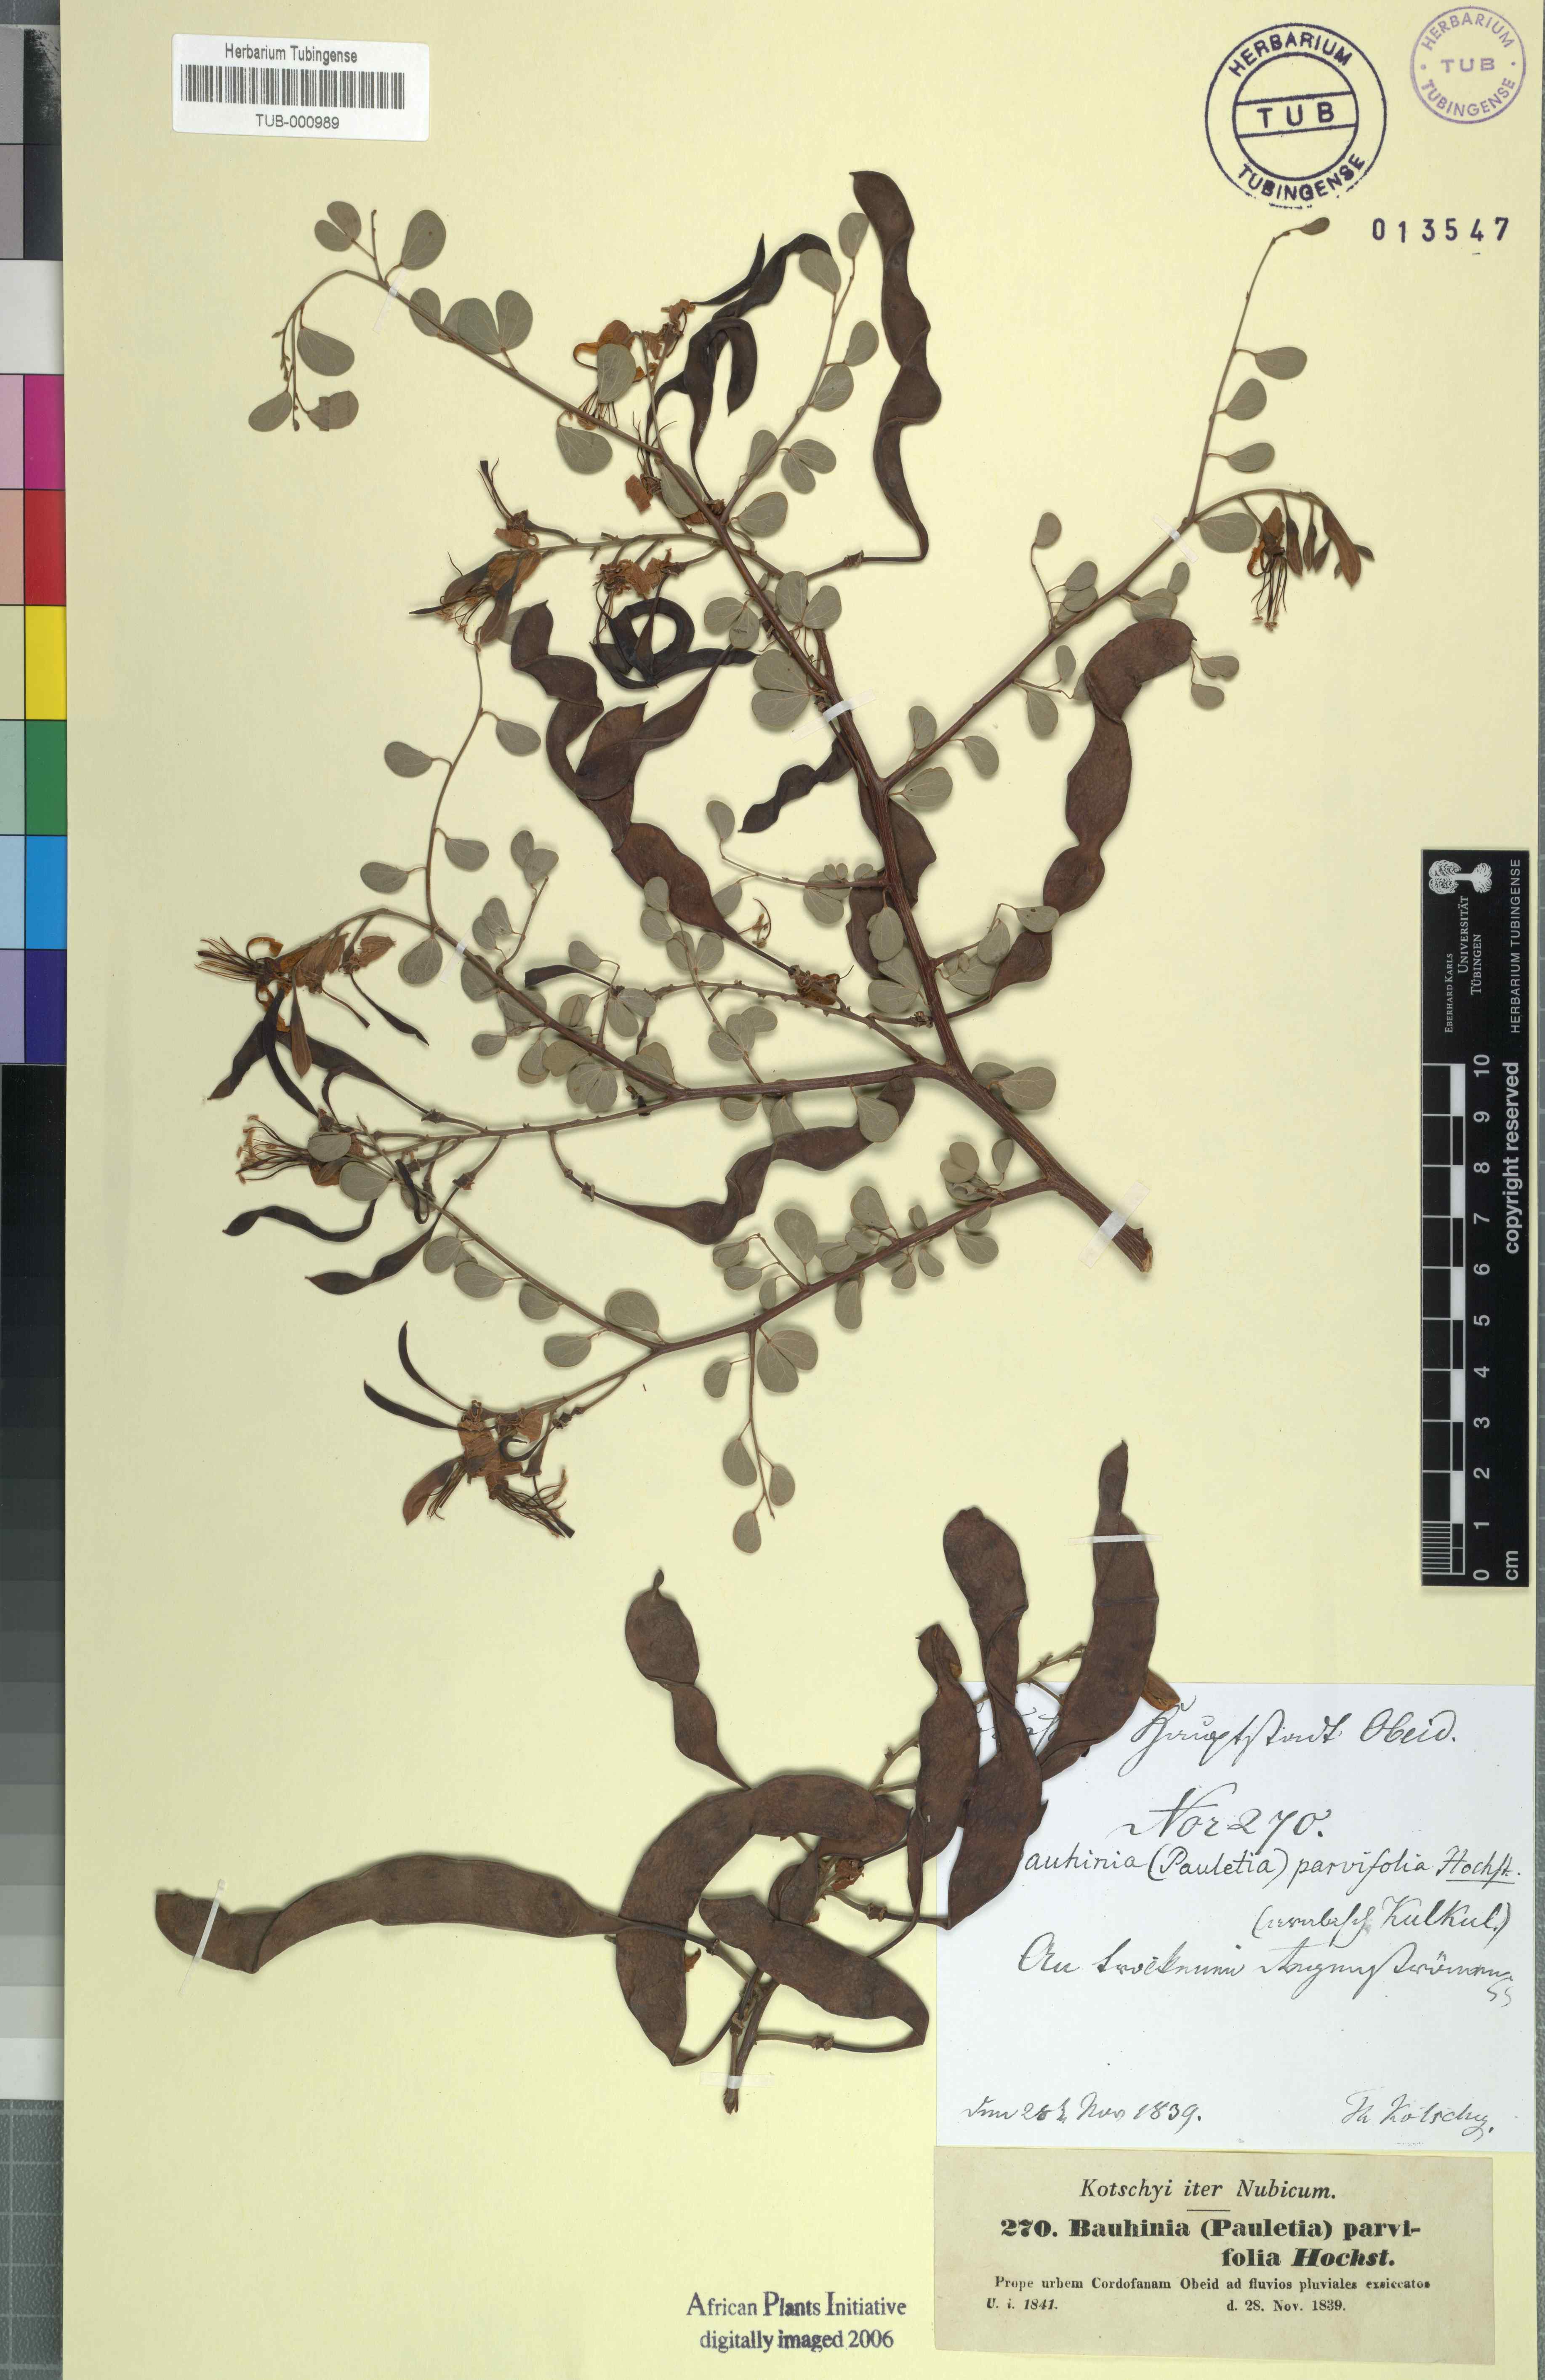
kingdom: Plantae
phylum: Tracheophyta
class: Magnoliopsida
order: Fabales
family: Fabaceae
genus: Bauhinia
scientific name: Bauhinia rufescens
